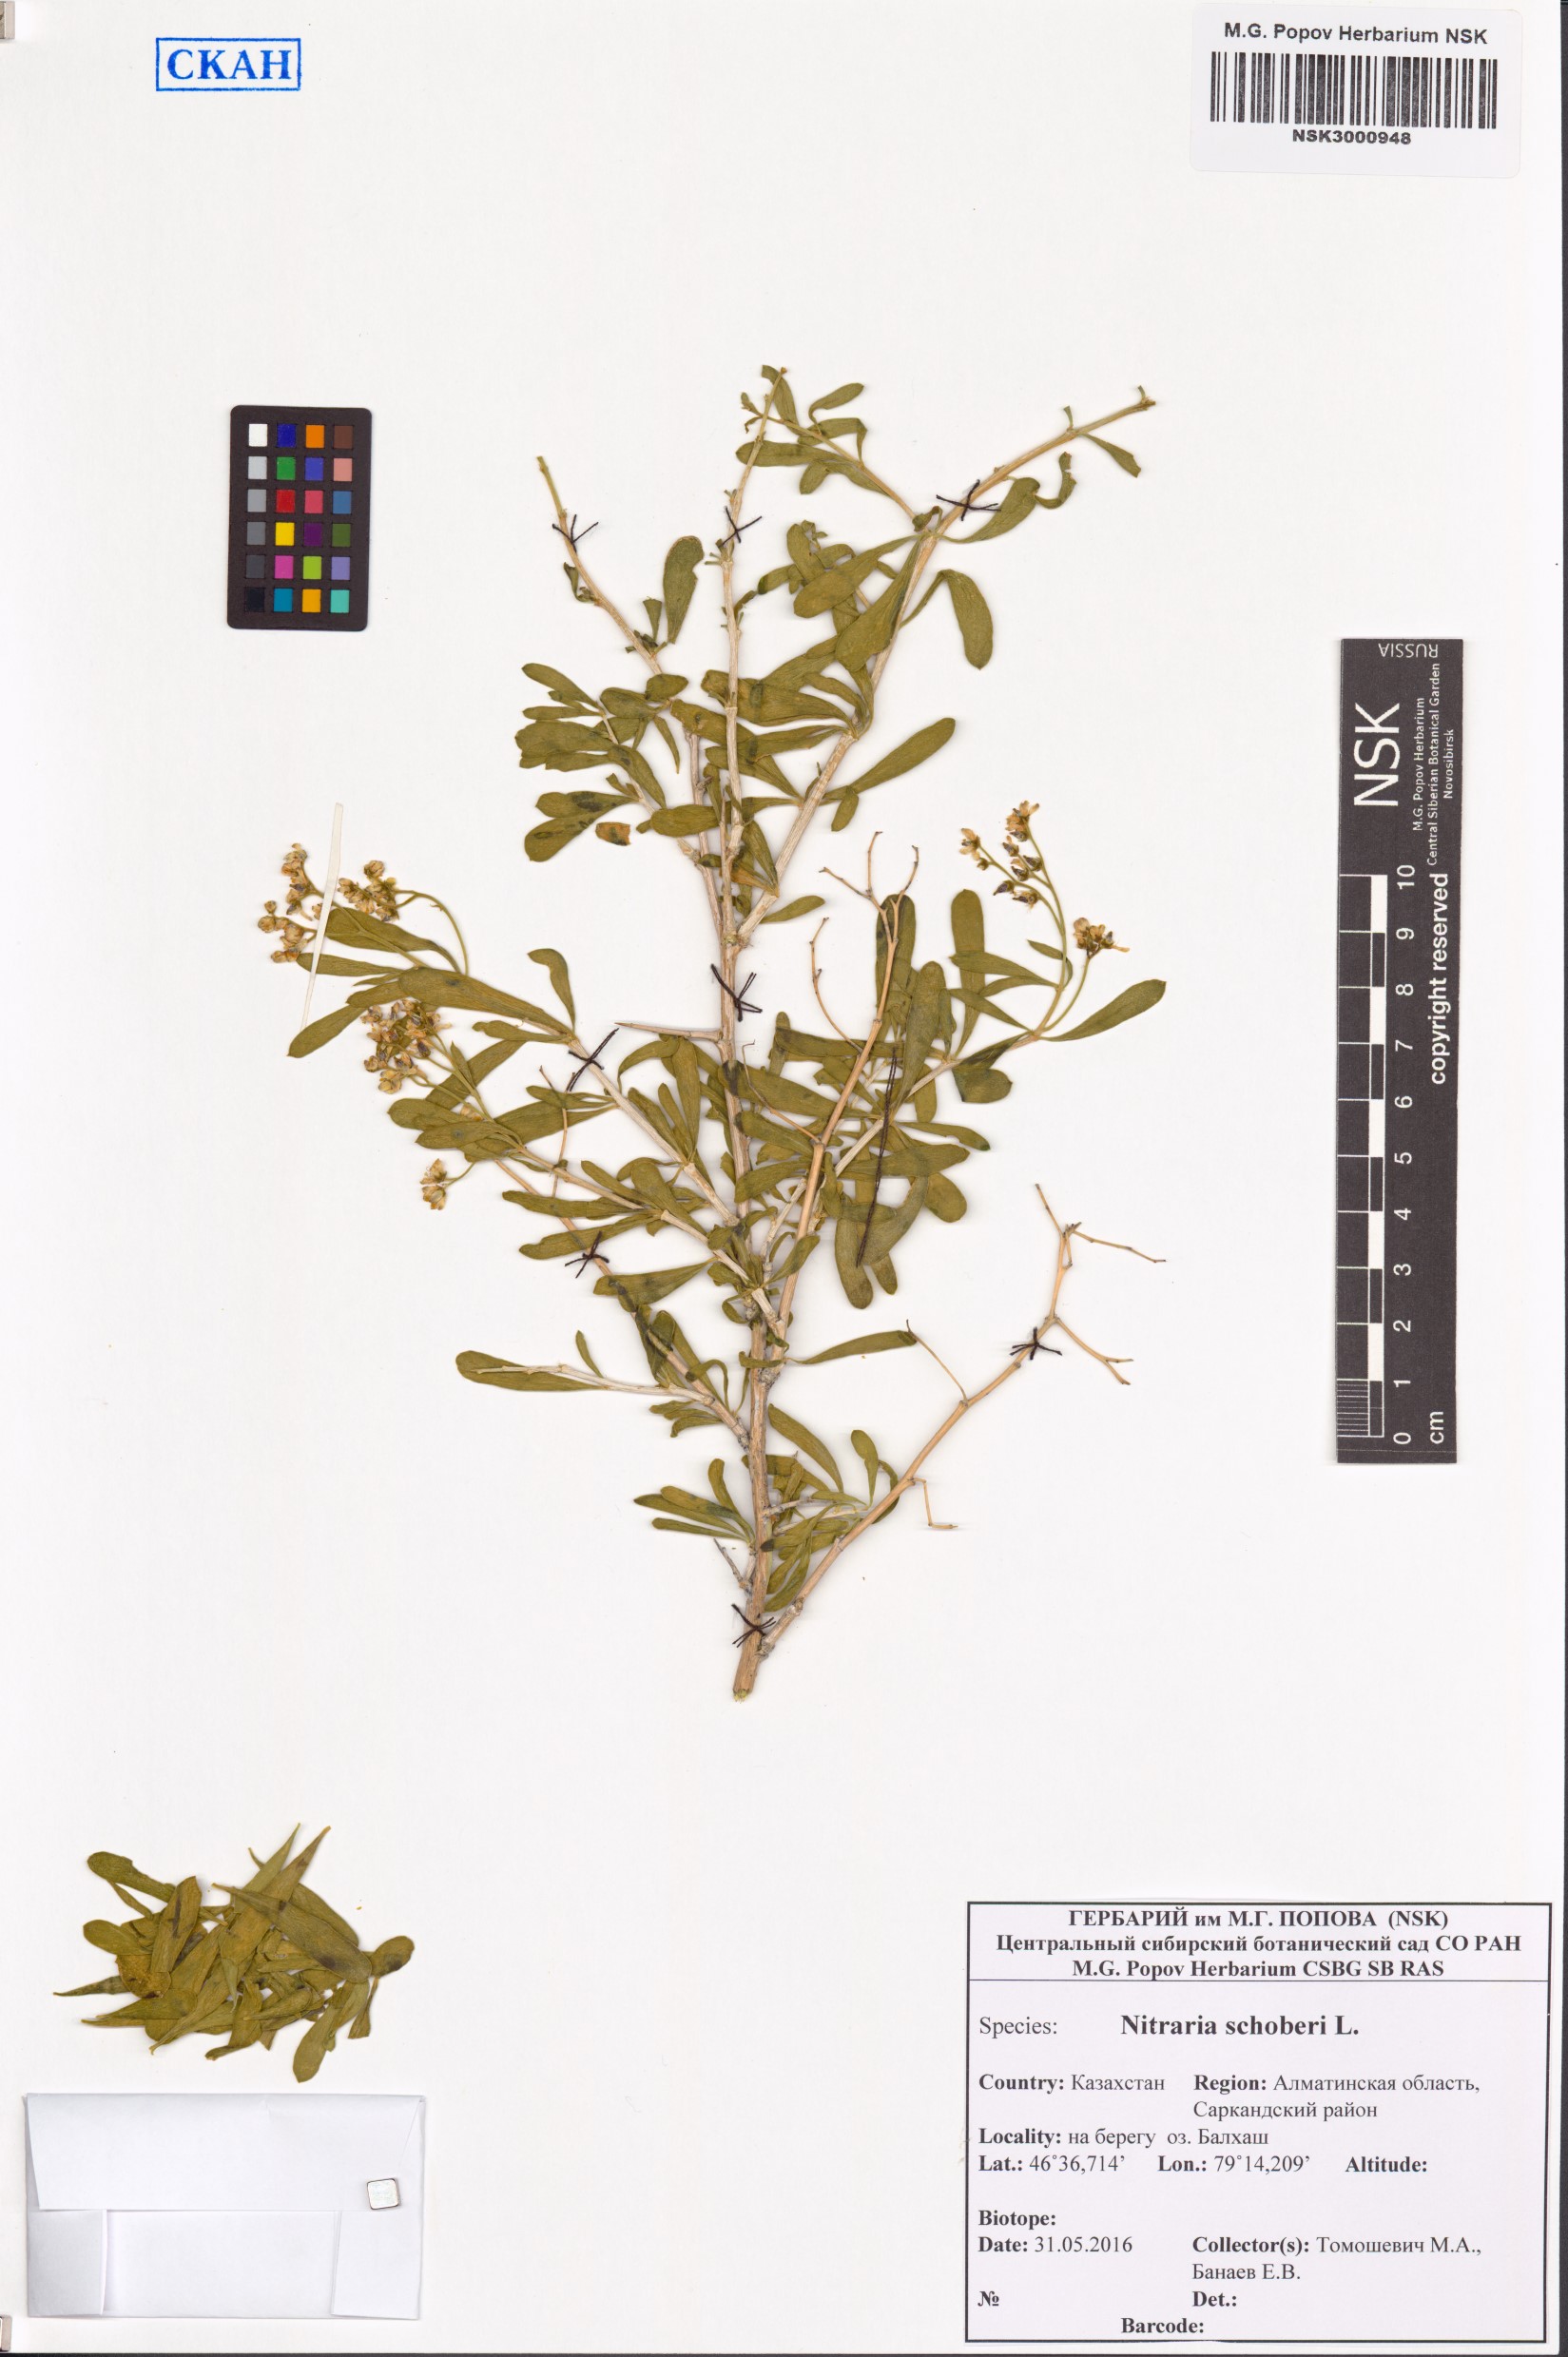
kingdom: Plantae
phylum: Tracheophyta
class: Magnoliopsida
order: Sapindales
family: Nitrariaceae
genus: Nitraria
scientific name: Nitraria schoberi
